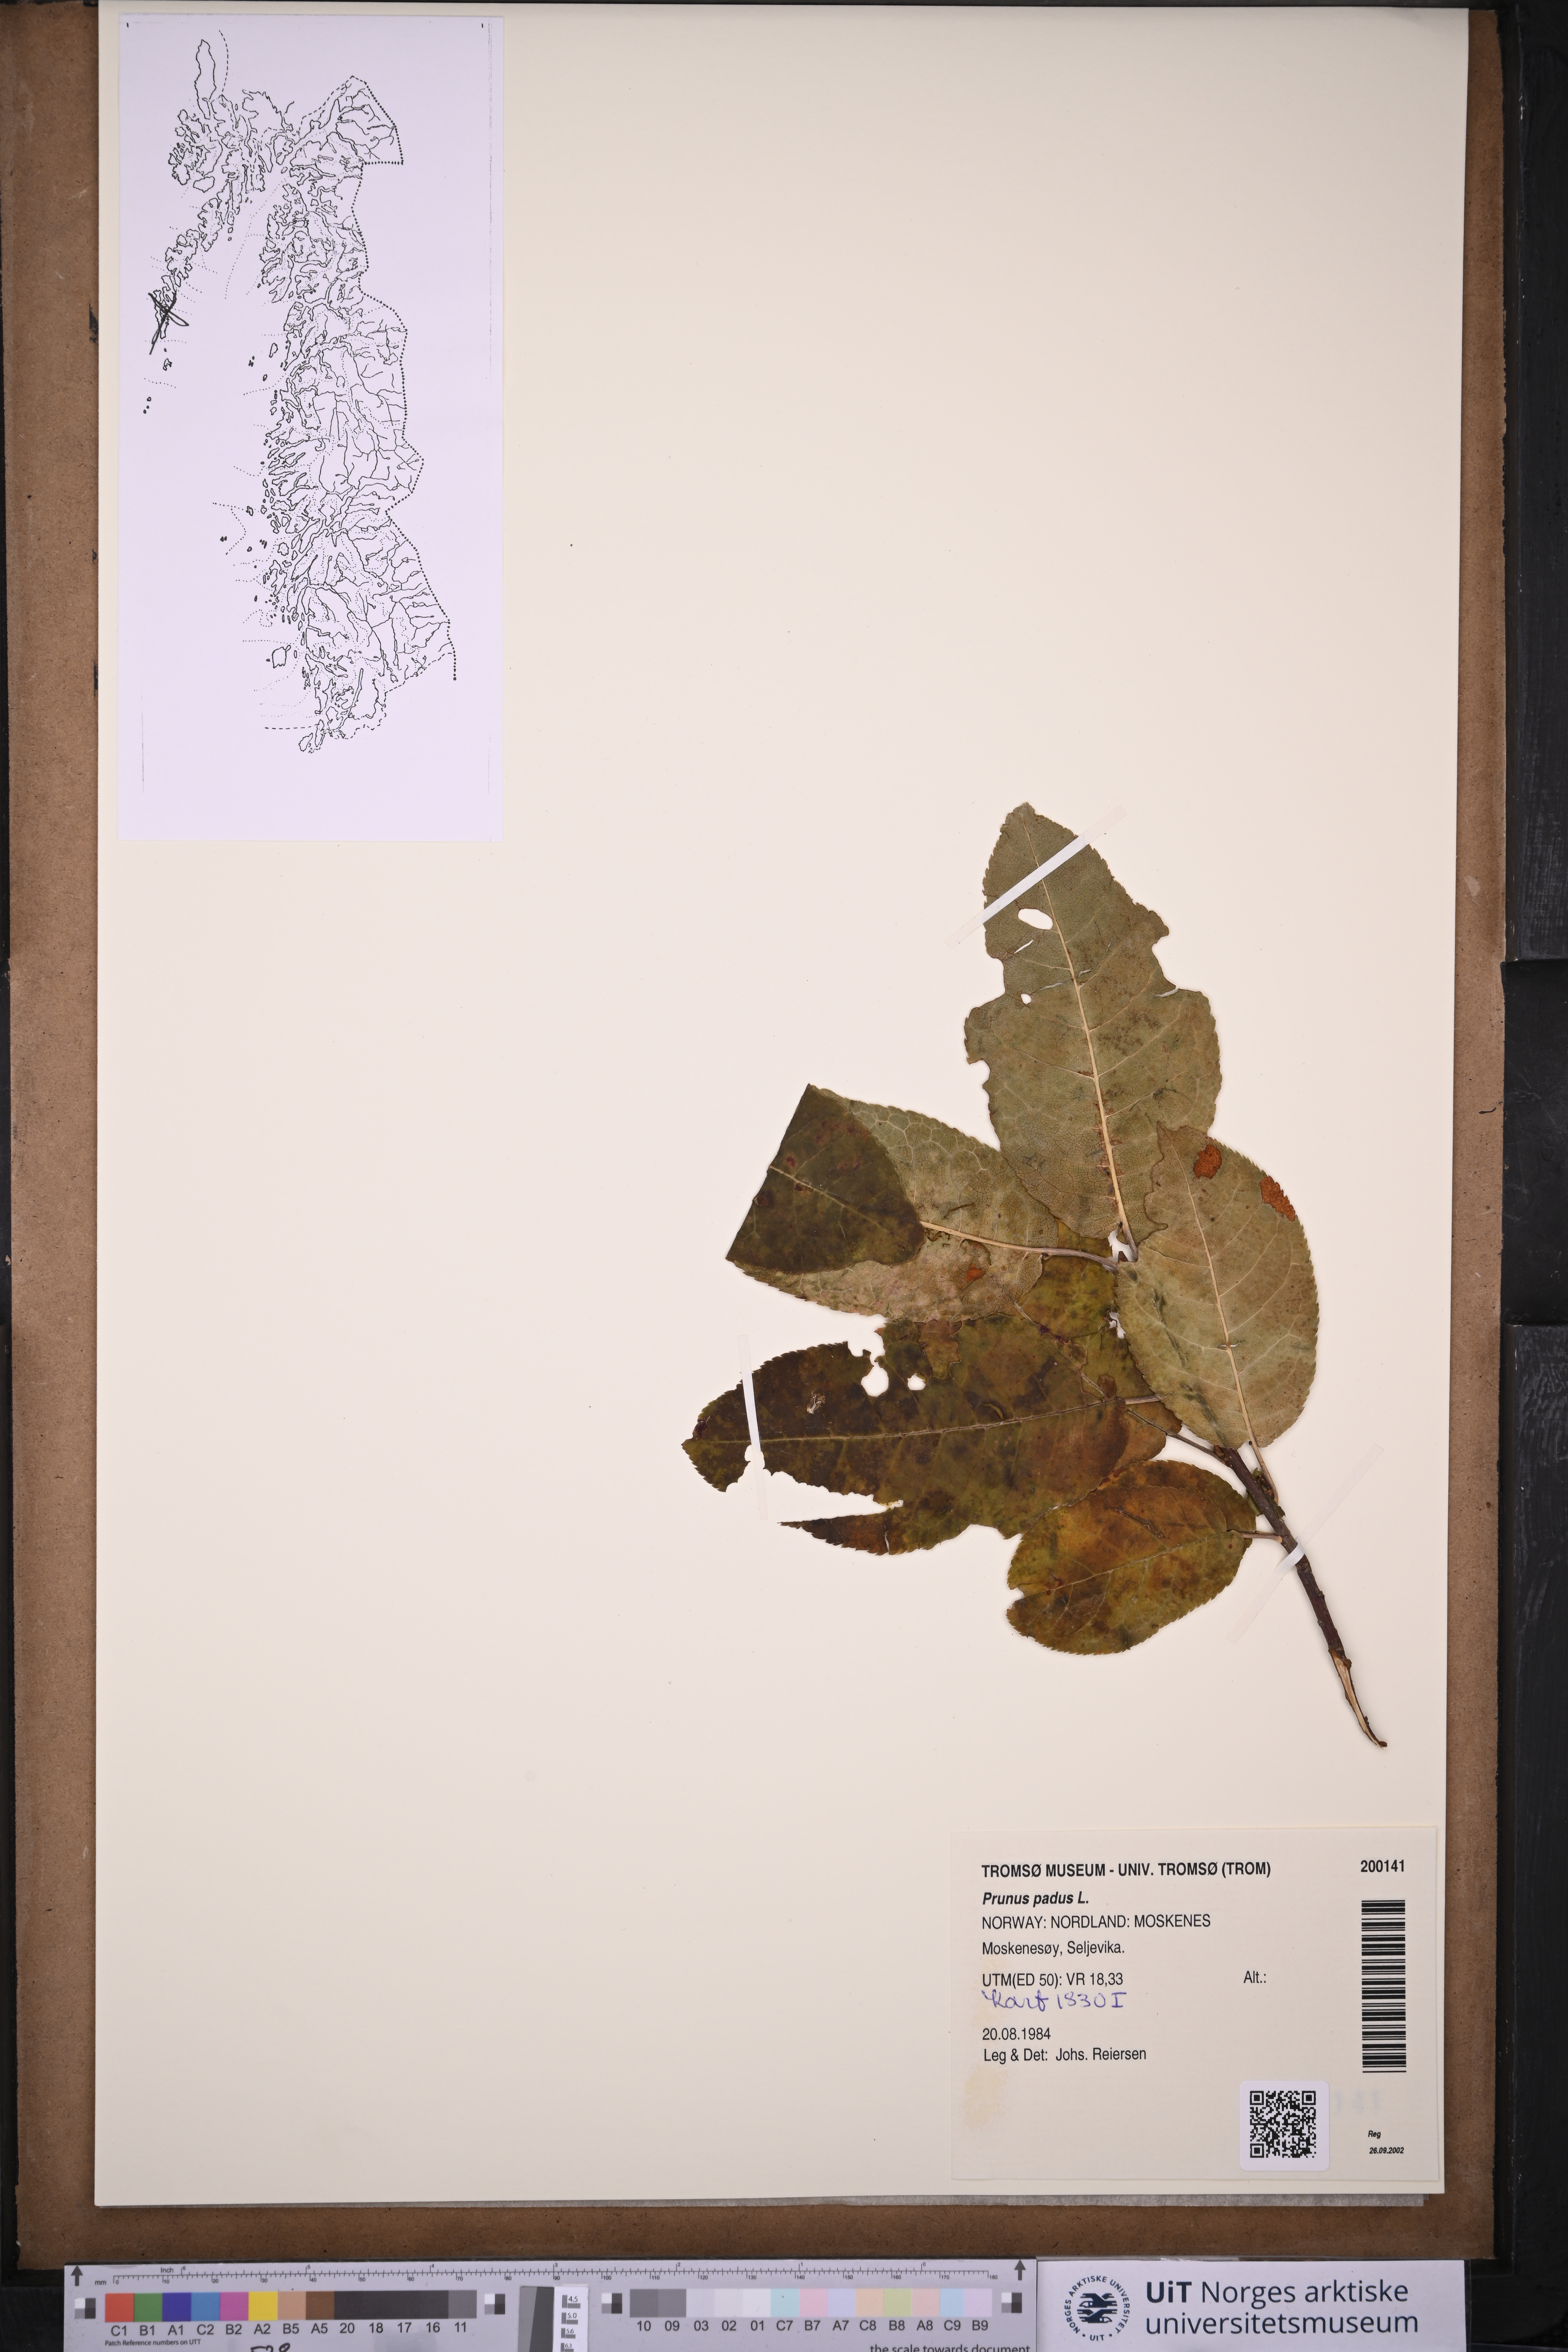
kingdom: Plantae
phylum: Tracheophyta
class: Magnoliopsida
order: Rosales
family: Rosaceae
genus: Prunus
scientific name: Prunus padus
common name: Bird cherry
